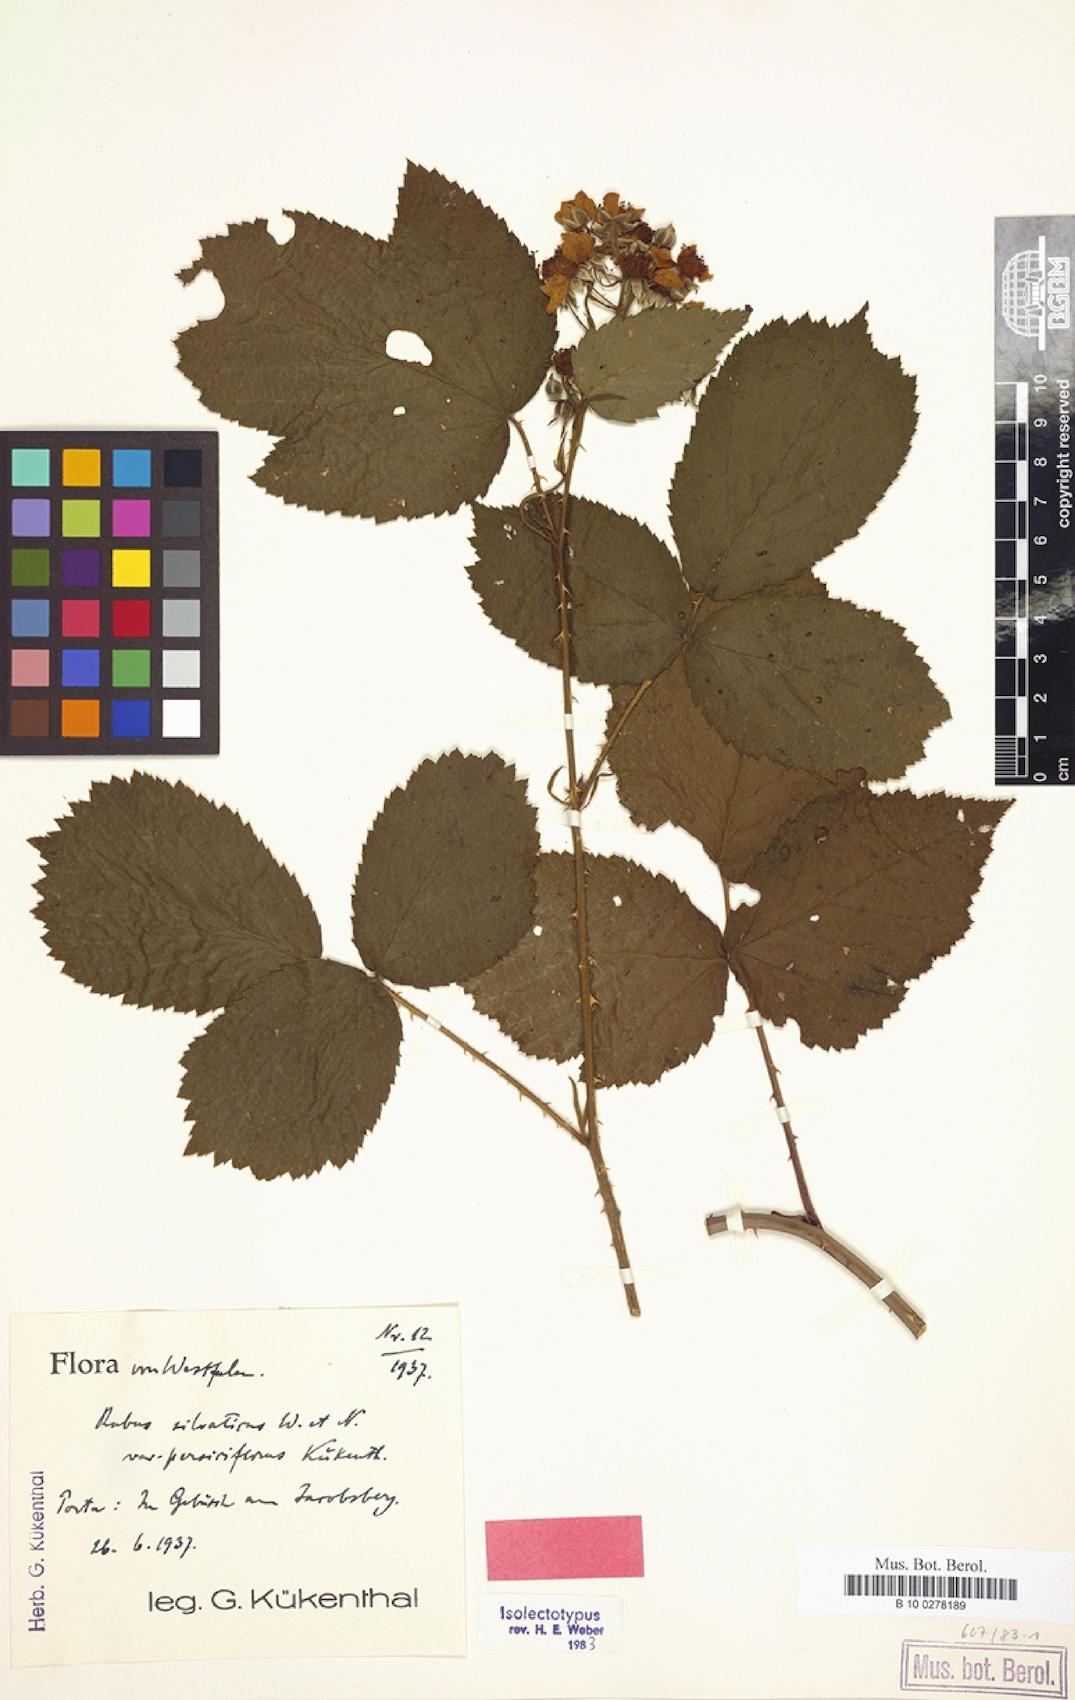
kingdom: Plantae
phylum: Tracheophyta
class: Magnoliopsida
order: Rosales
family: Rosaceae
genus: Rubus
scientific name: Rubus silvaticus
